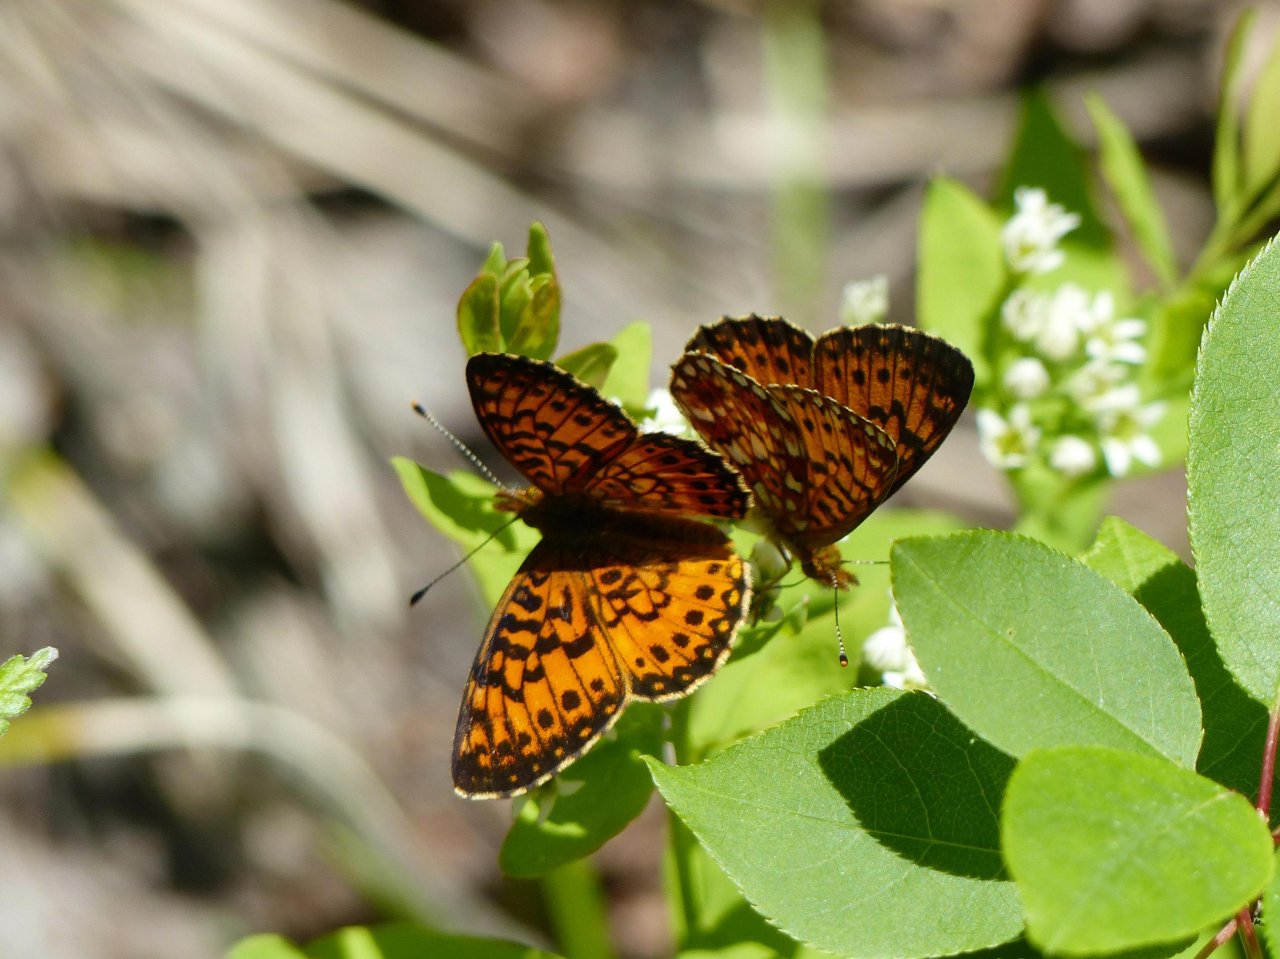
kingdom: Animalia
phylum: Arthropoda
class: Insecta
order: Lepidoptera
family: Nymphalidae
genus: Boloria
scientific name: Boloria selene
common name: Silver-bordered Fritillary
